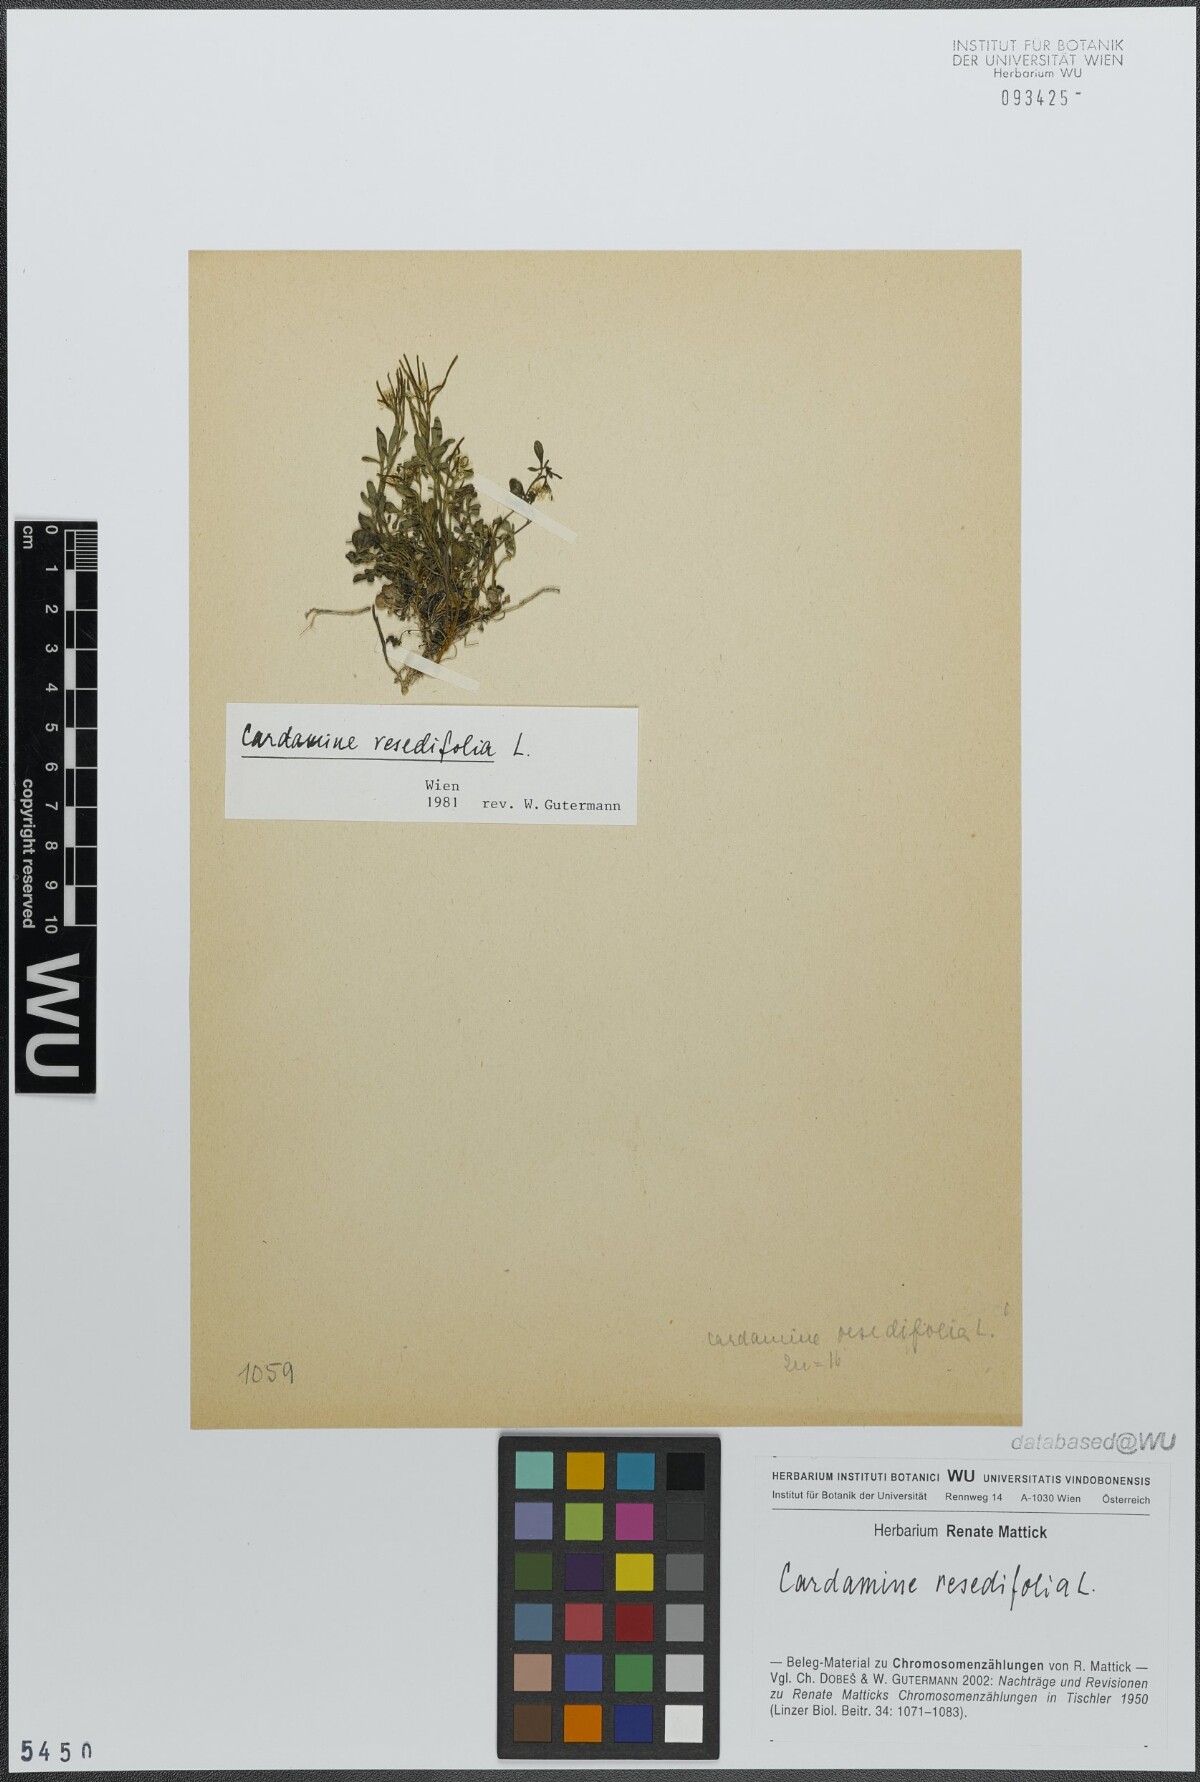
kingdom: Plantae
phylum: Tracheophyta
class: Magnoliopsida
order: Brassicales
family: Brassicaceae
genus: Cardamine
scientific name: Cardamine resedifolia
